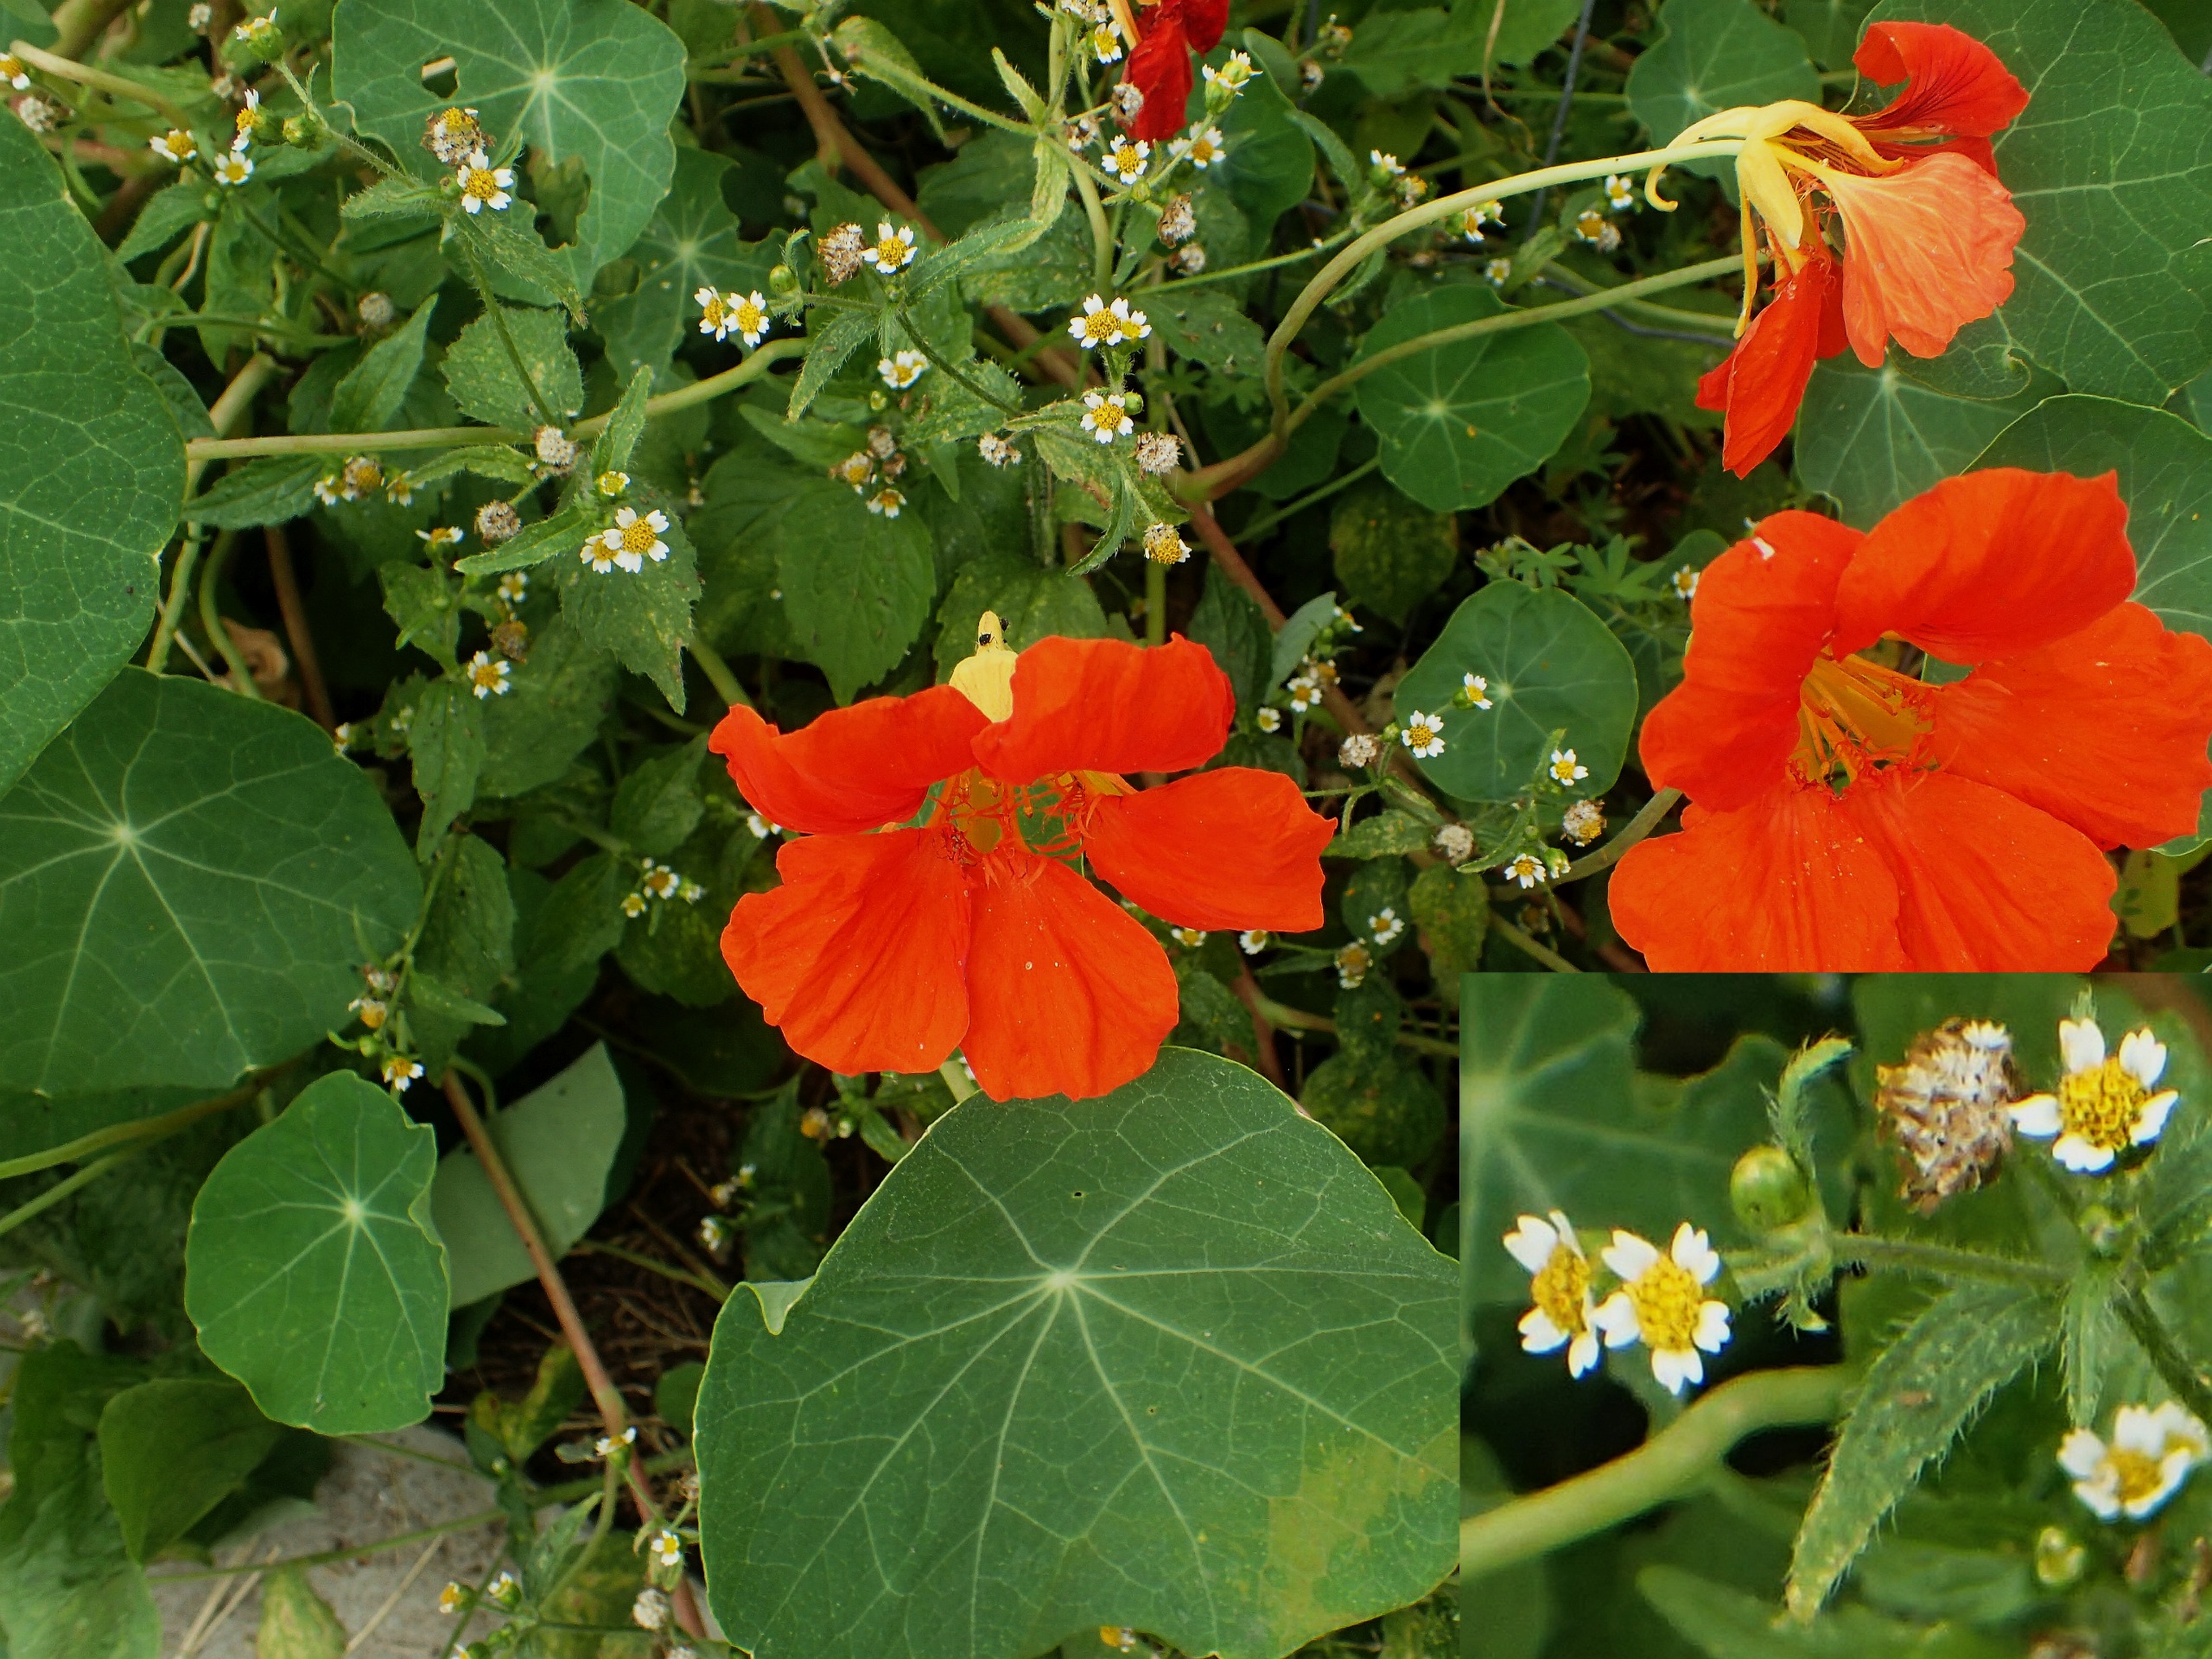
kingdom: Plantae
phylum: Tracheophyta
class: Magnoliopsida
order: Asterales
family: Asteraceae
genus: Galinsoga
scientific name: Galinsoga quadriradiata
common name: Kirtel-kortstråle
